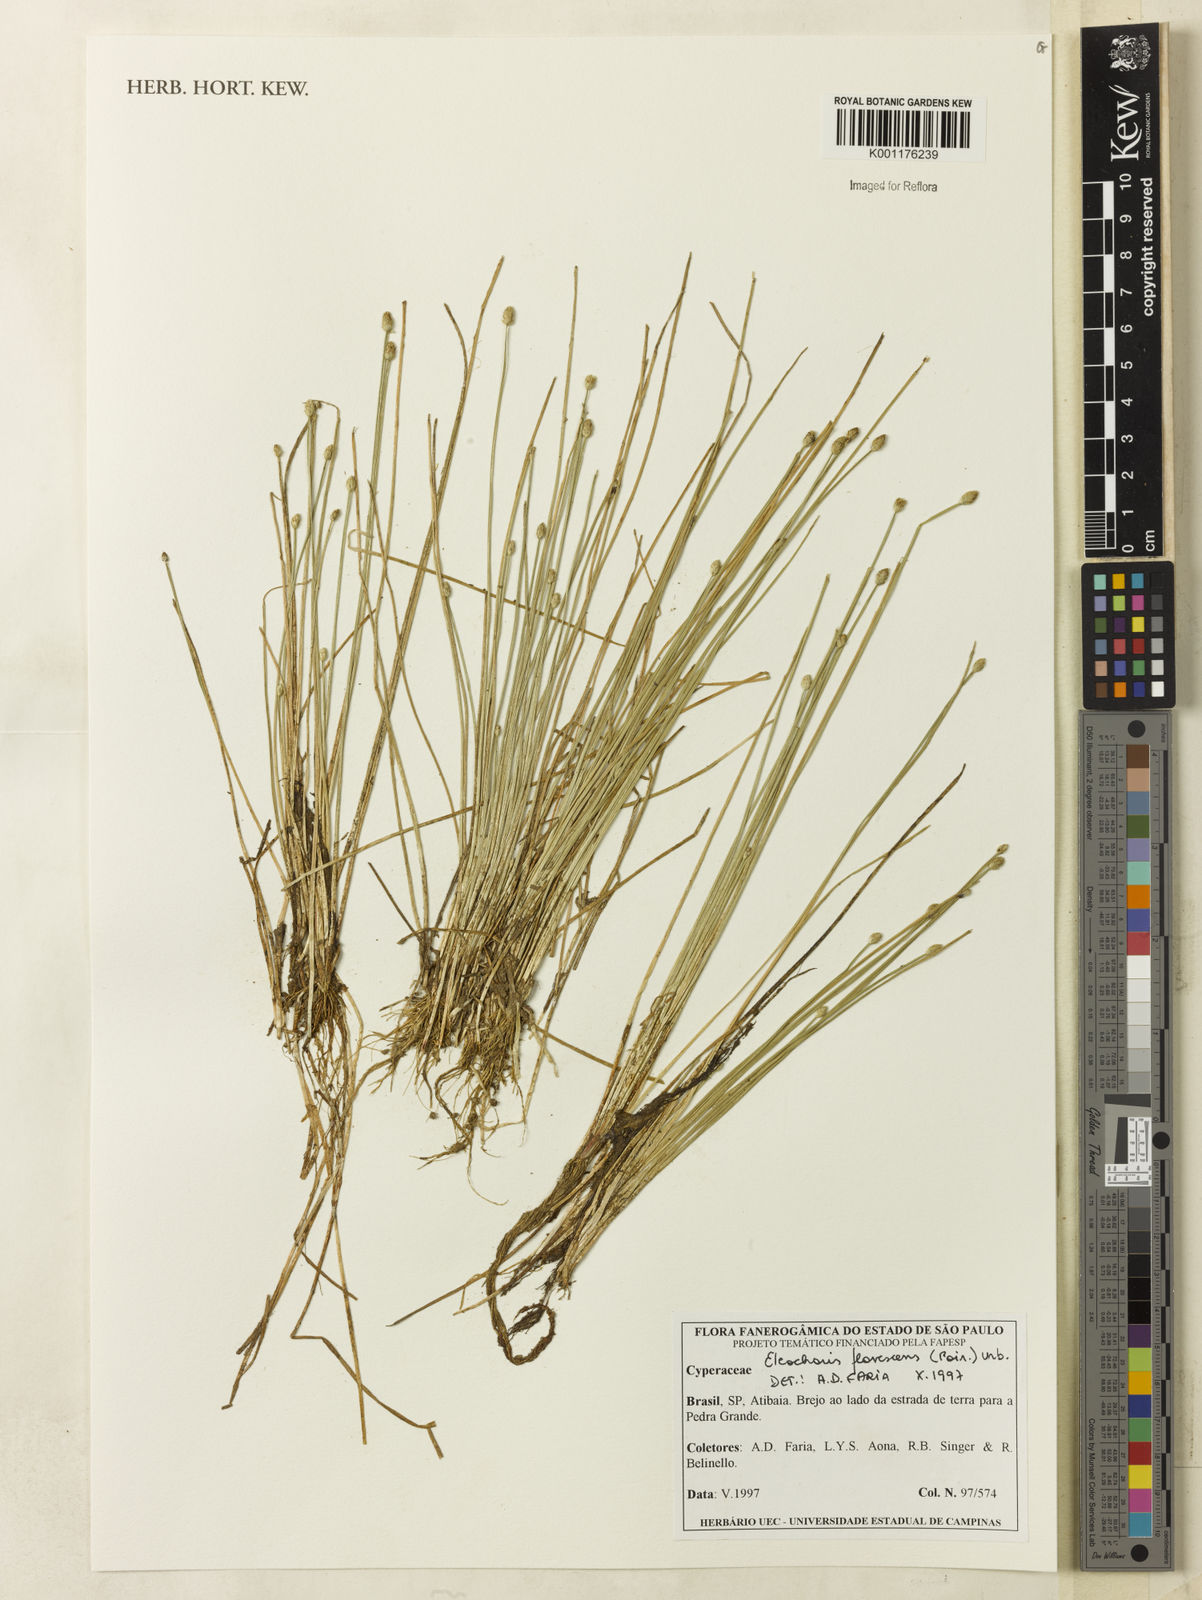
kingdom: Plantae
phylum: Tracheophyta
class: Liliopsida
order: Poales
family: Cyperaceae
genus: Eleocharis
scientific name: Eleocharis flavescens
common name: Yellow spikerush
